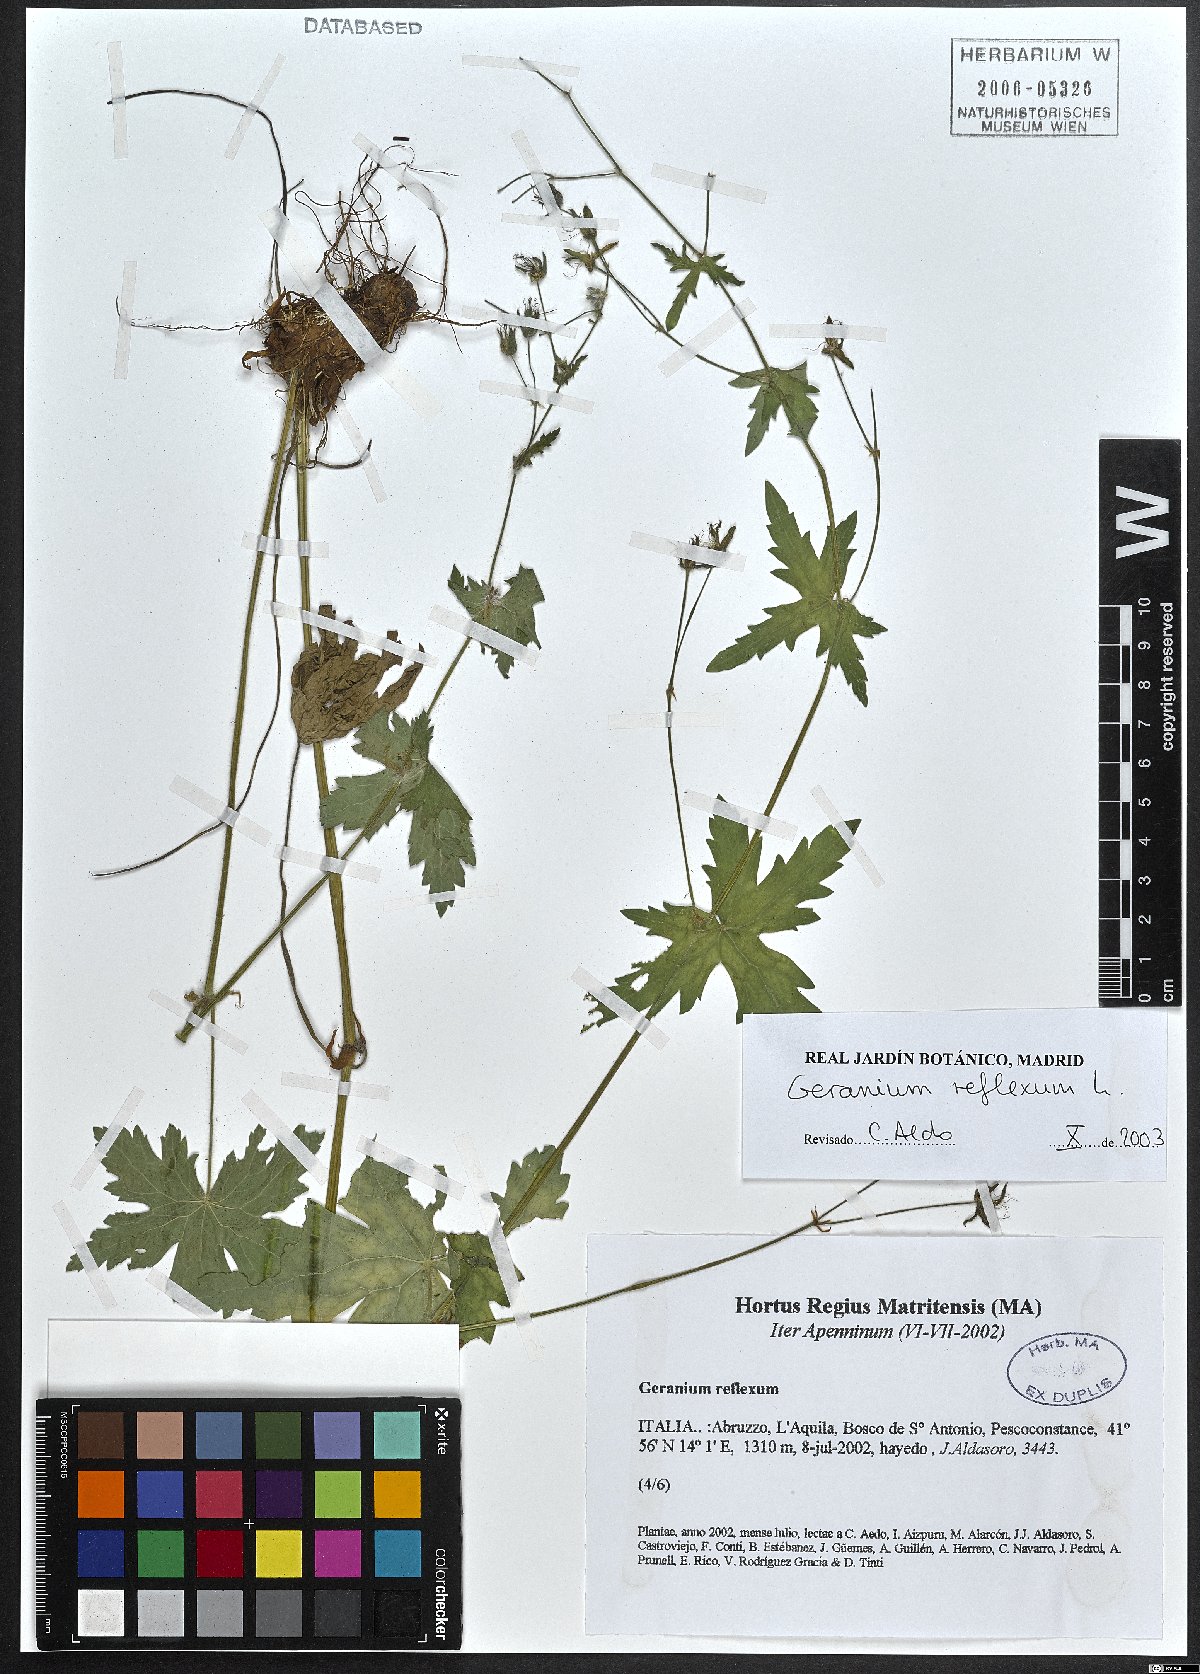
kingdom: Plantae
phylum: Tracheophyta
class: Magnoliopsida
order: Geraniales
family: Geraniaceae
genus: Geranium
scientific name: Geranium reflexum
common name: Reflexed crane's-bill
